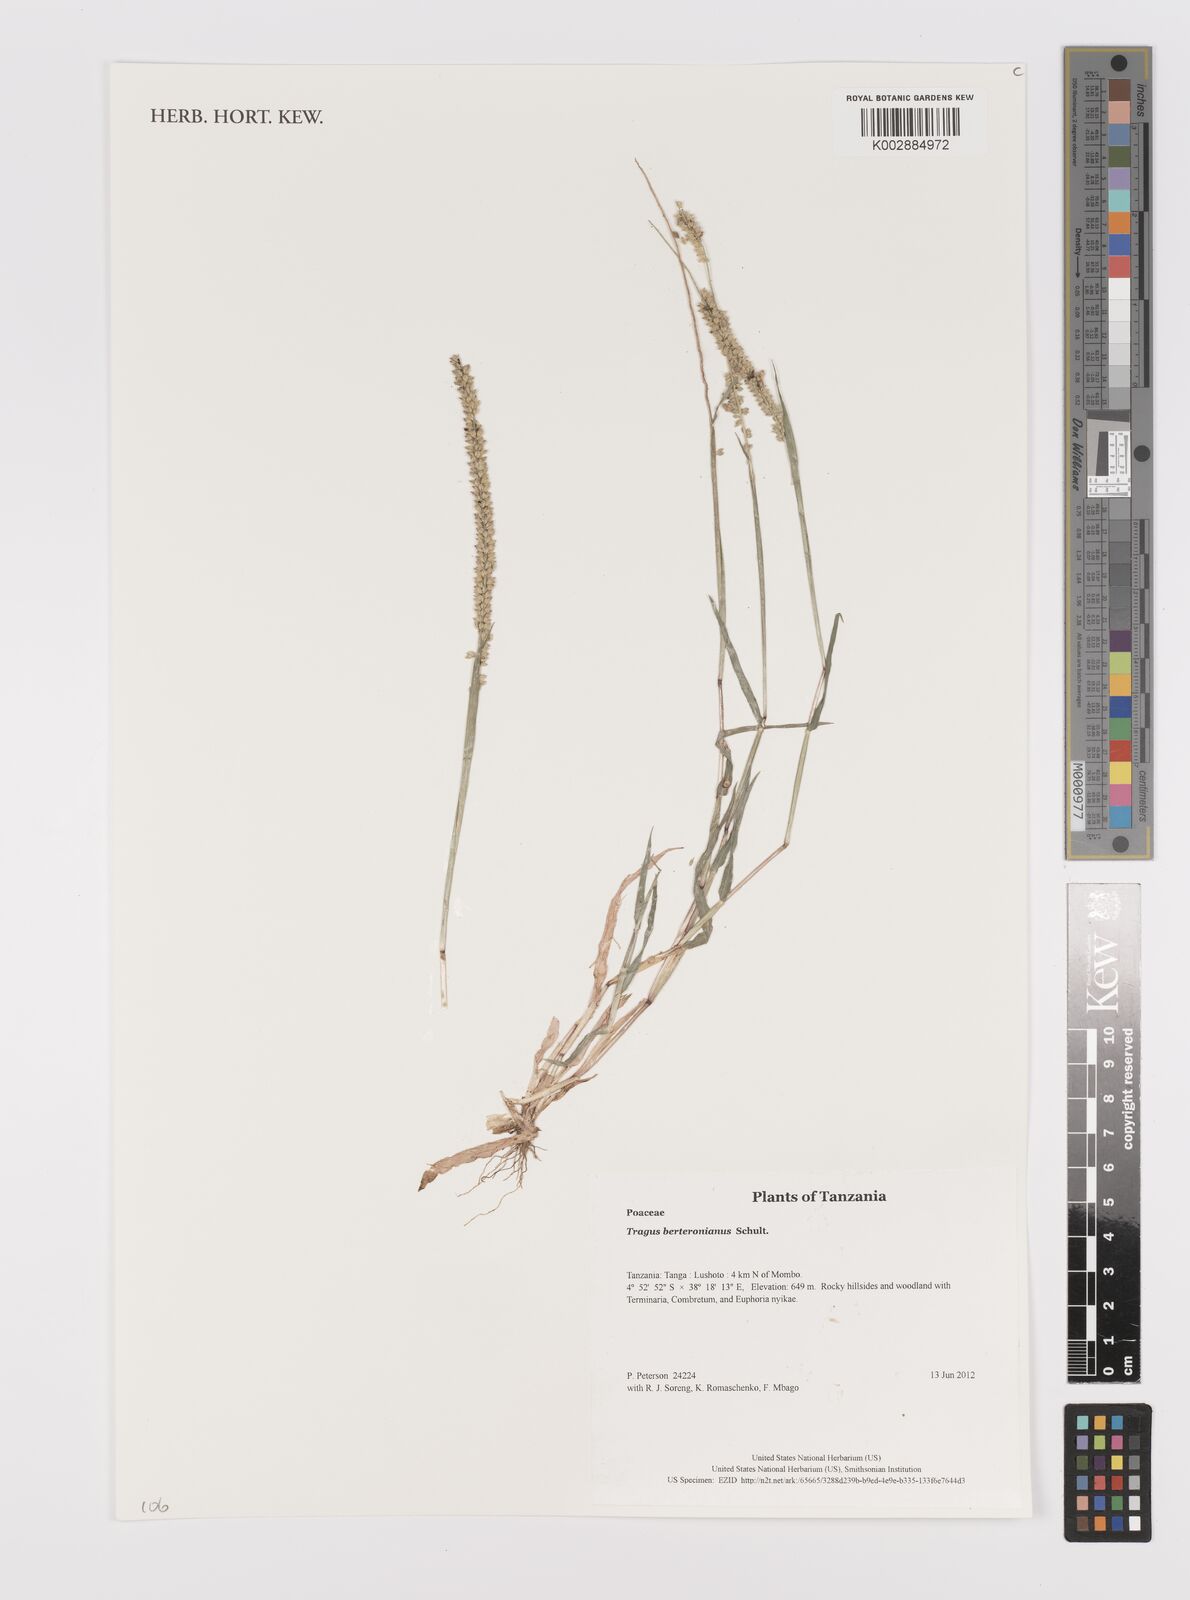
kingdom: Plantae
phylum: Tracheophyta
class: Liliopsida
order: Poales
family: Poaceae
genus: Tragus
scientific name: Tragus berteronianus
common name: African bur-grass
